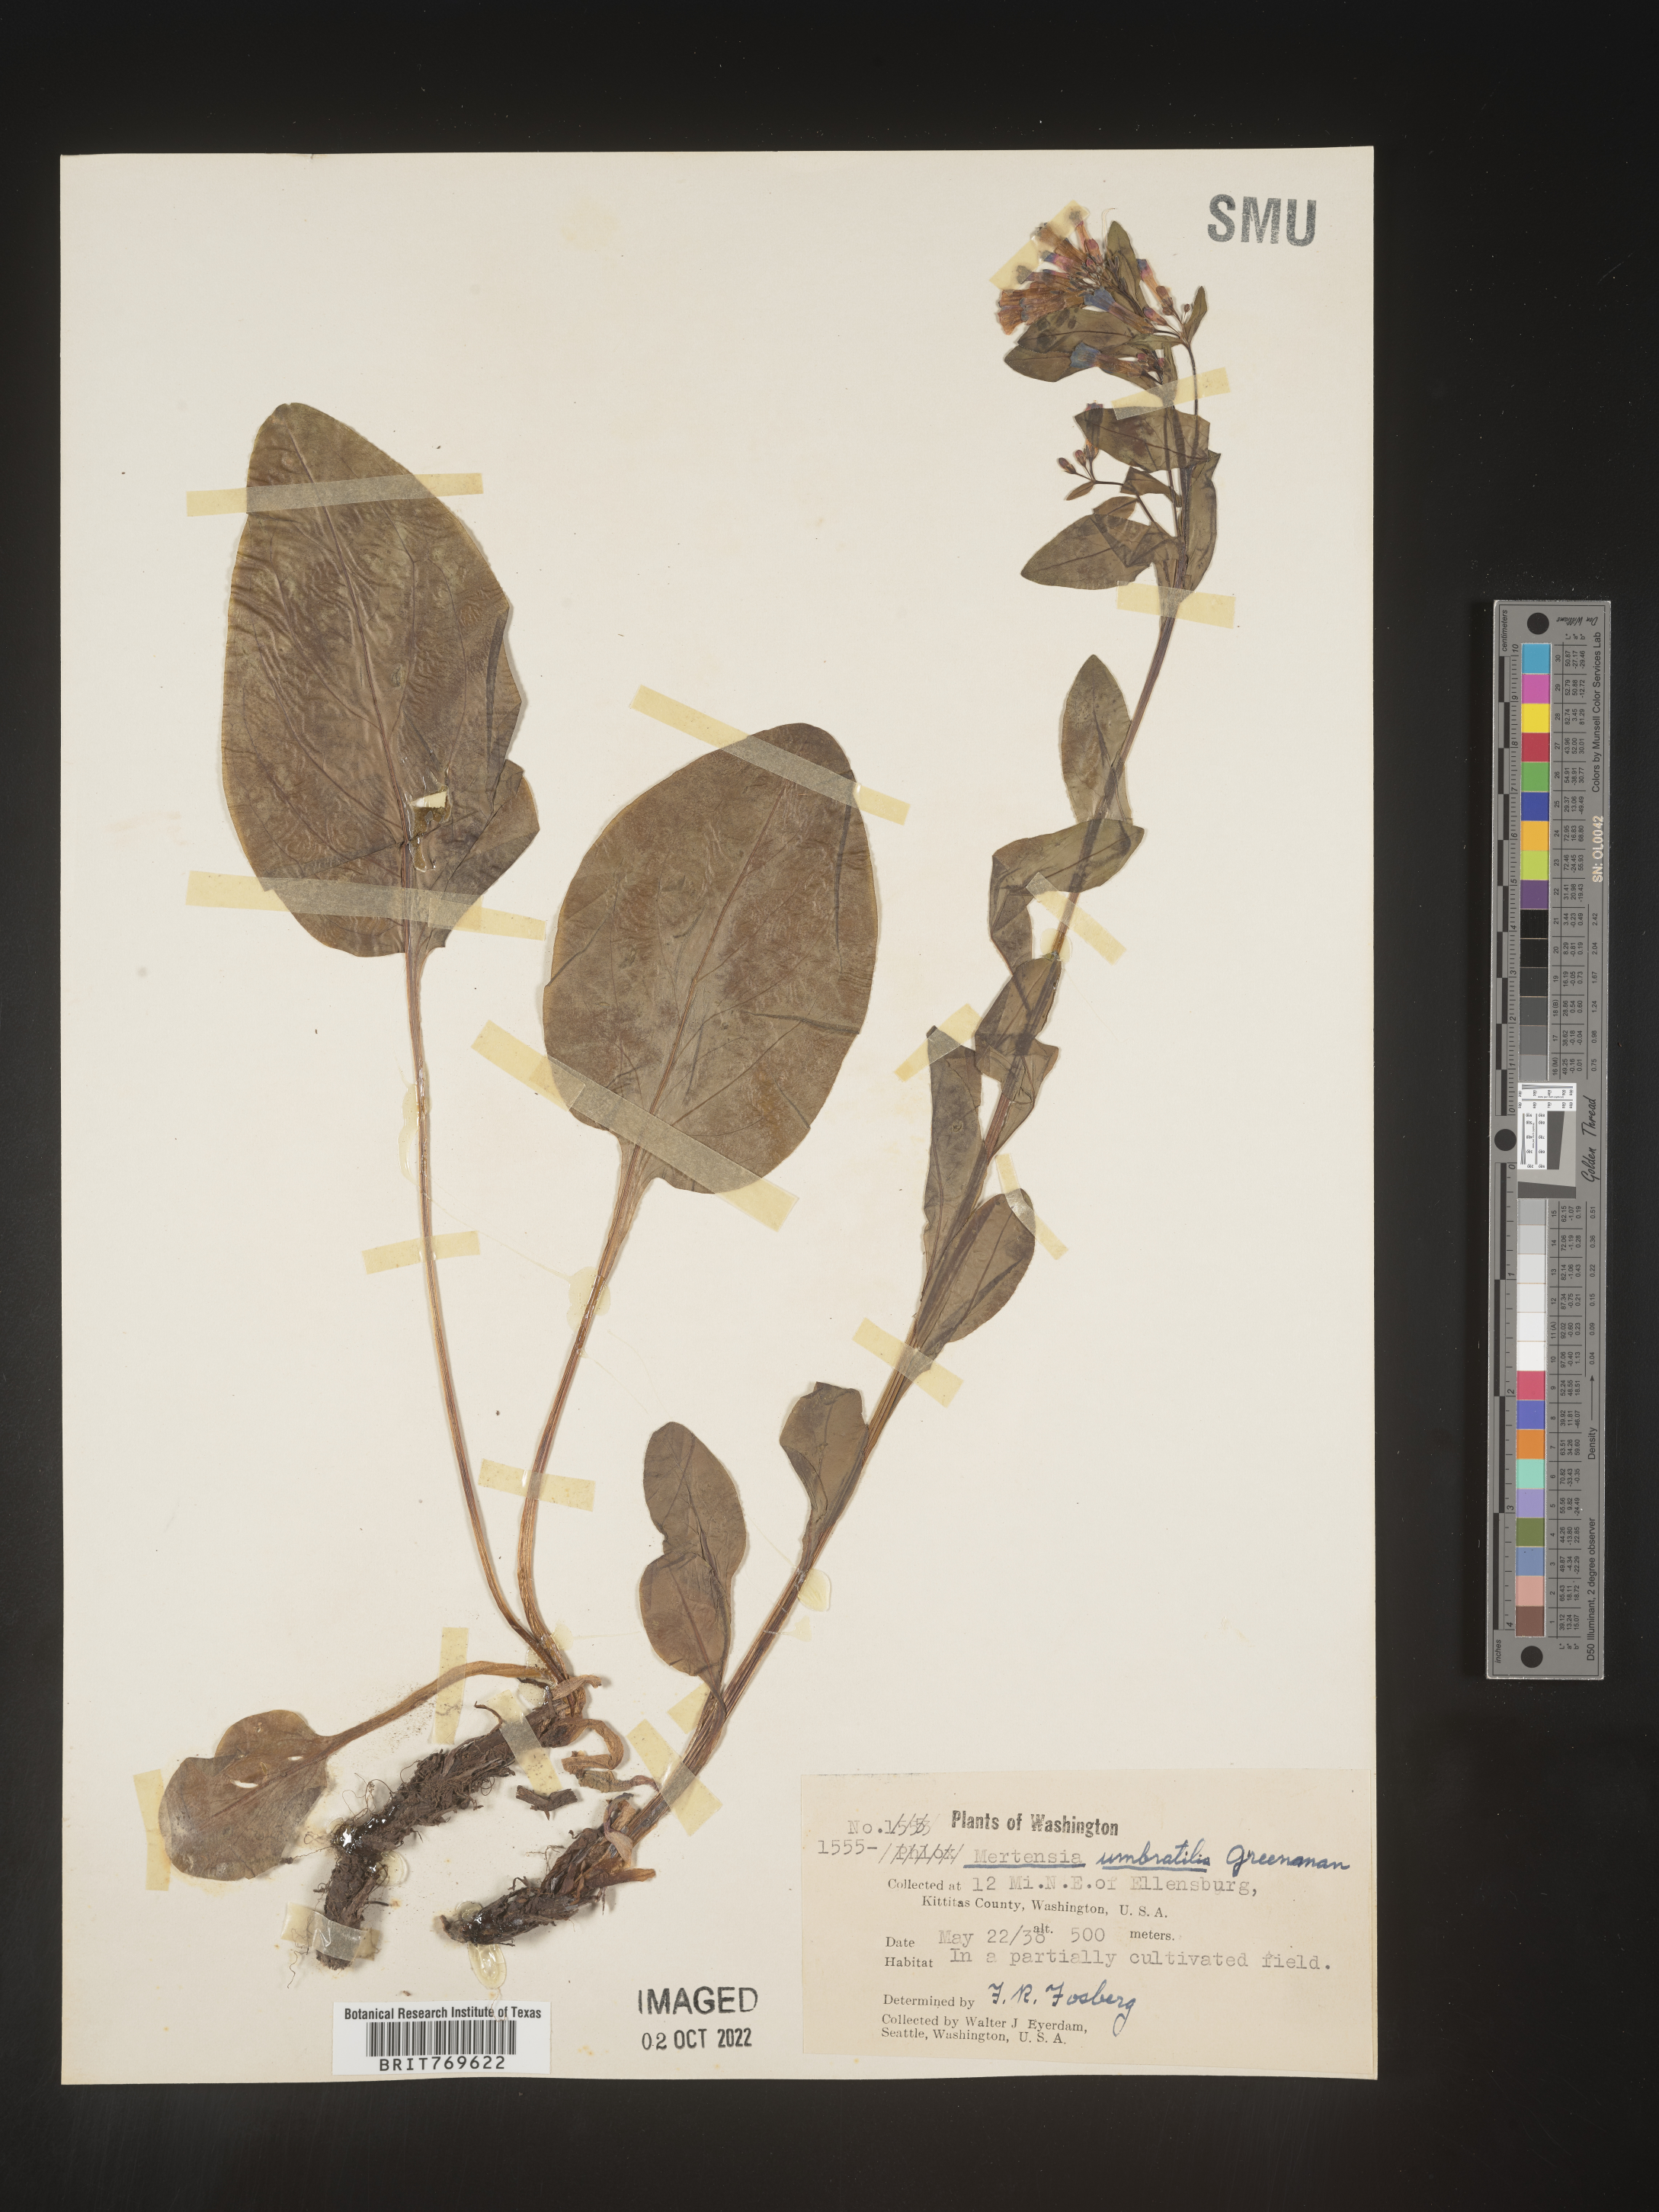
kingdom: Plantae
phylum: Tracheophyta
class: Magnoliopsida
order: Boraginales
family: Boraginaceae
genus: Mertensia
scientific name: Mertensia
